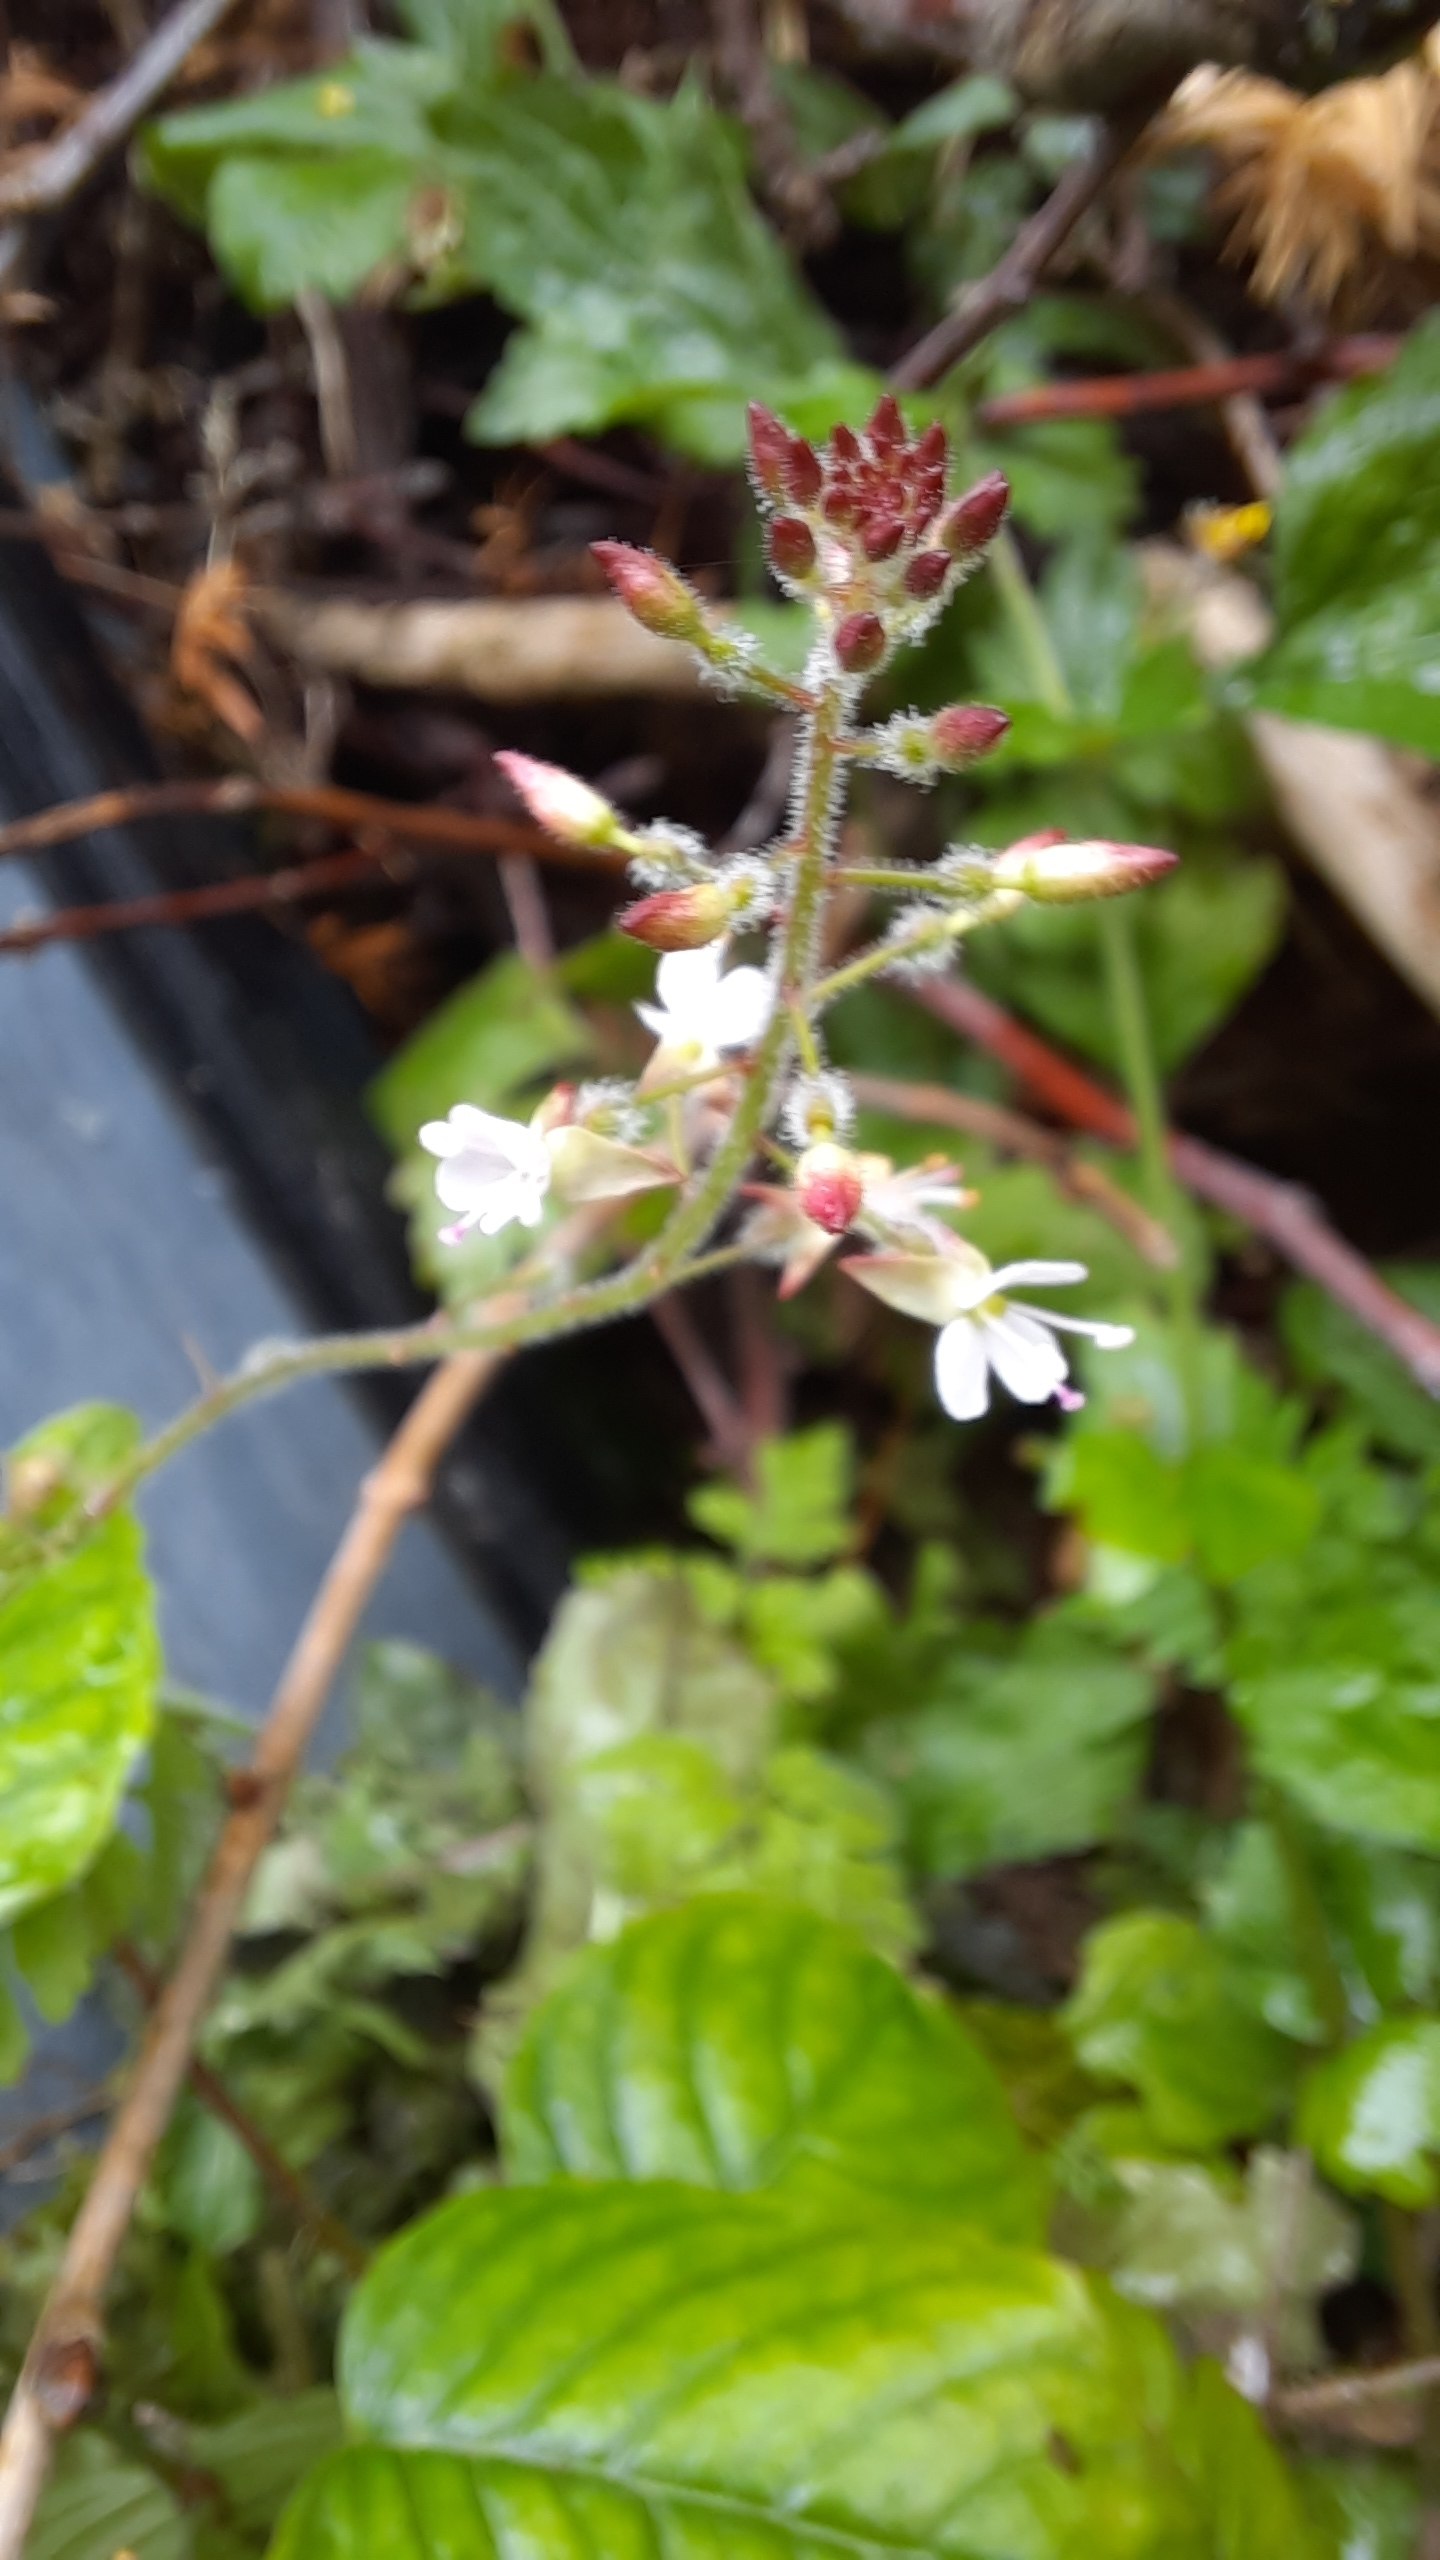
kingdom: Plantae
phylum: Tracheophyta
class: Magnoliopsida
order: Myrtales
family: Onagraceae
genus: Circaea
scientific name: Circaea lutetiana
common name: Dunet steffensurt
